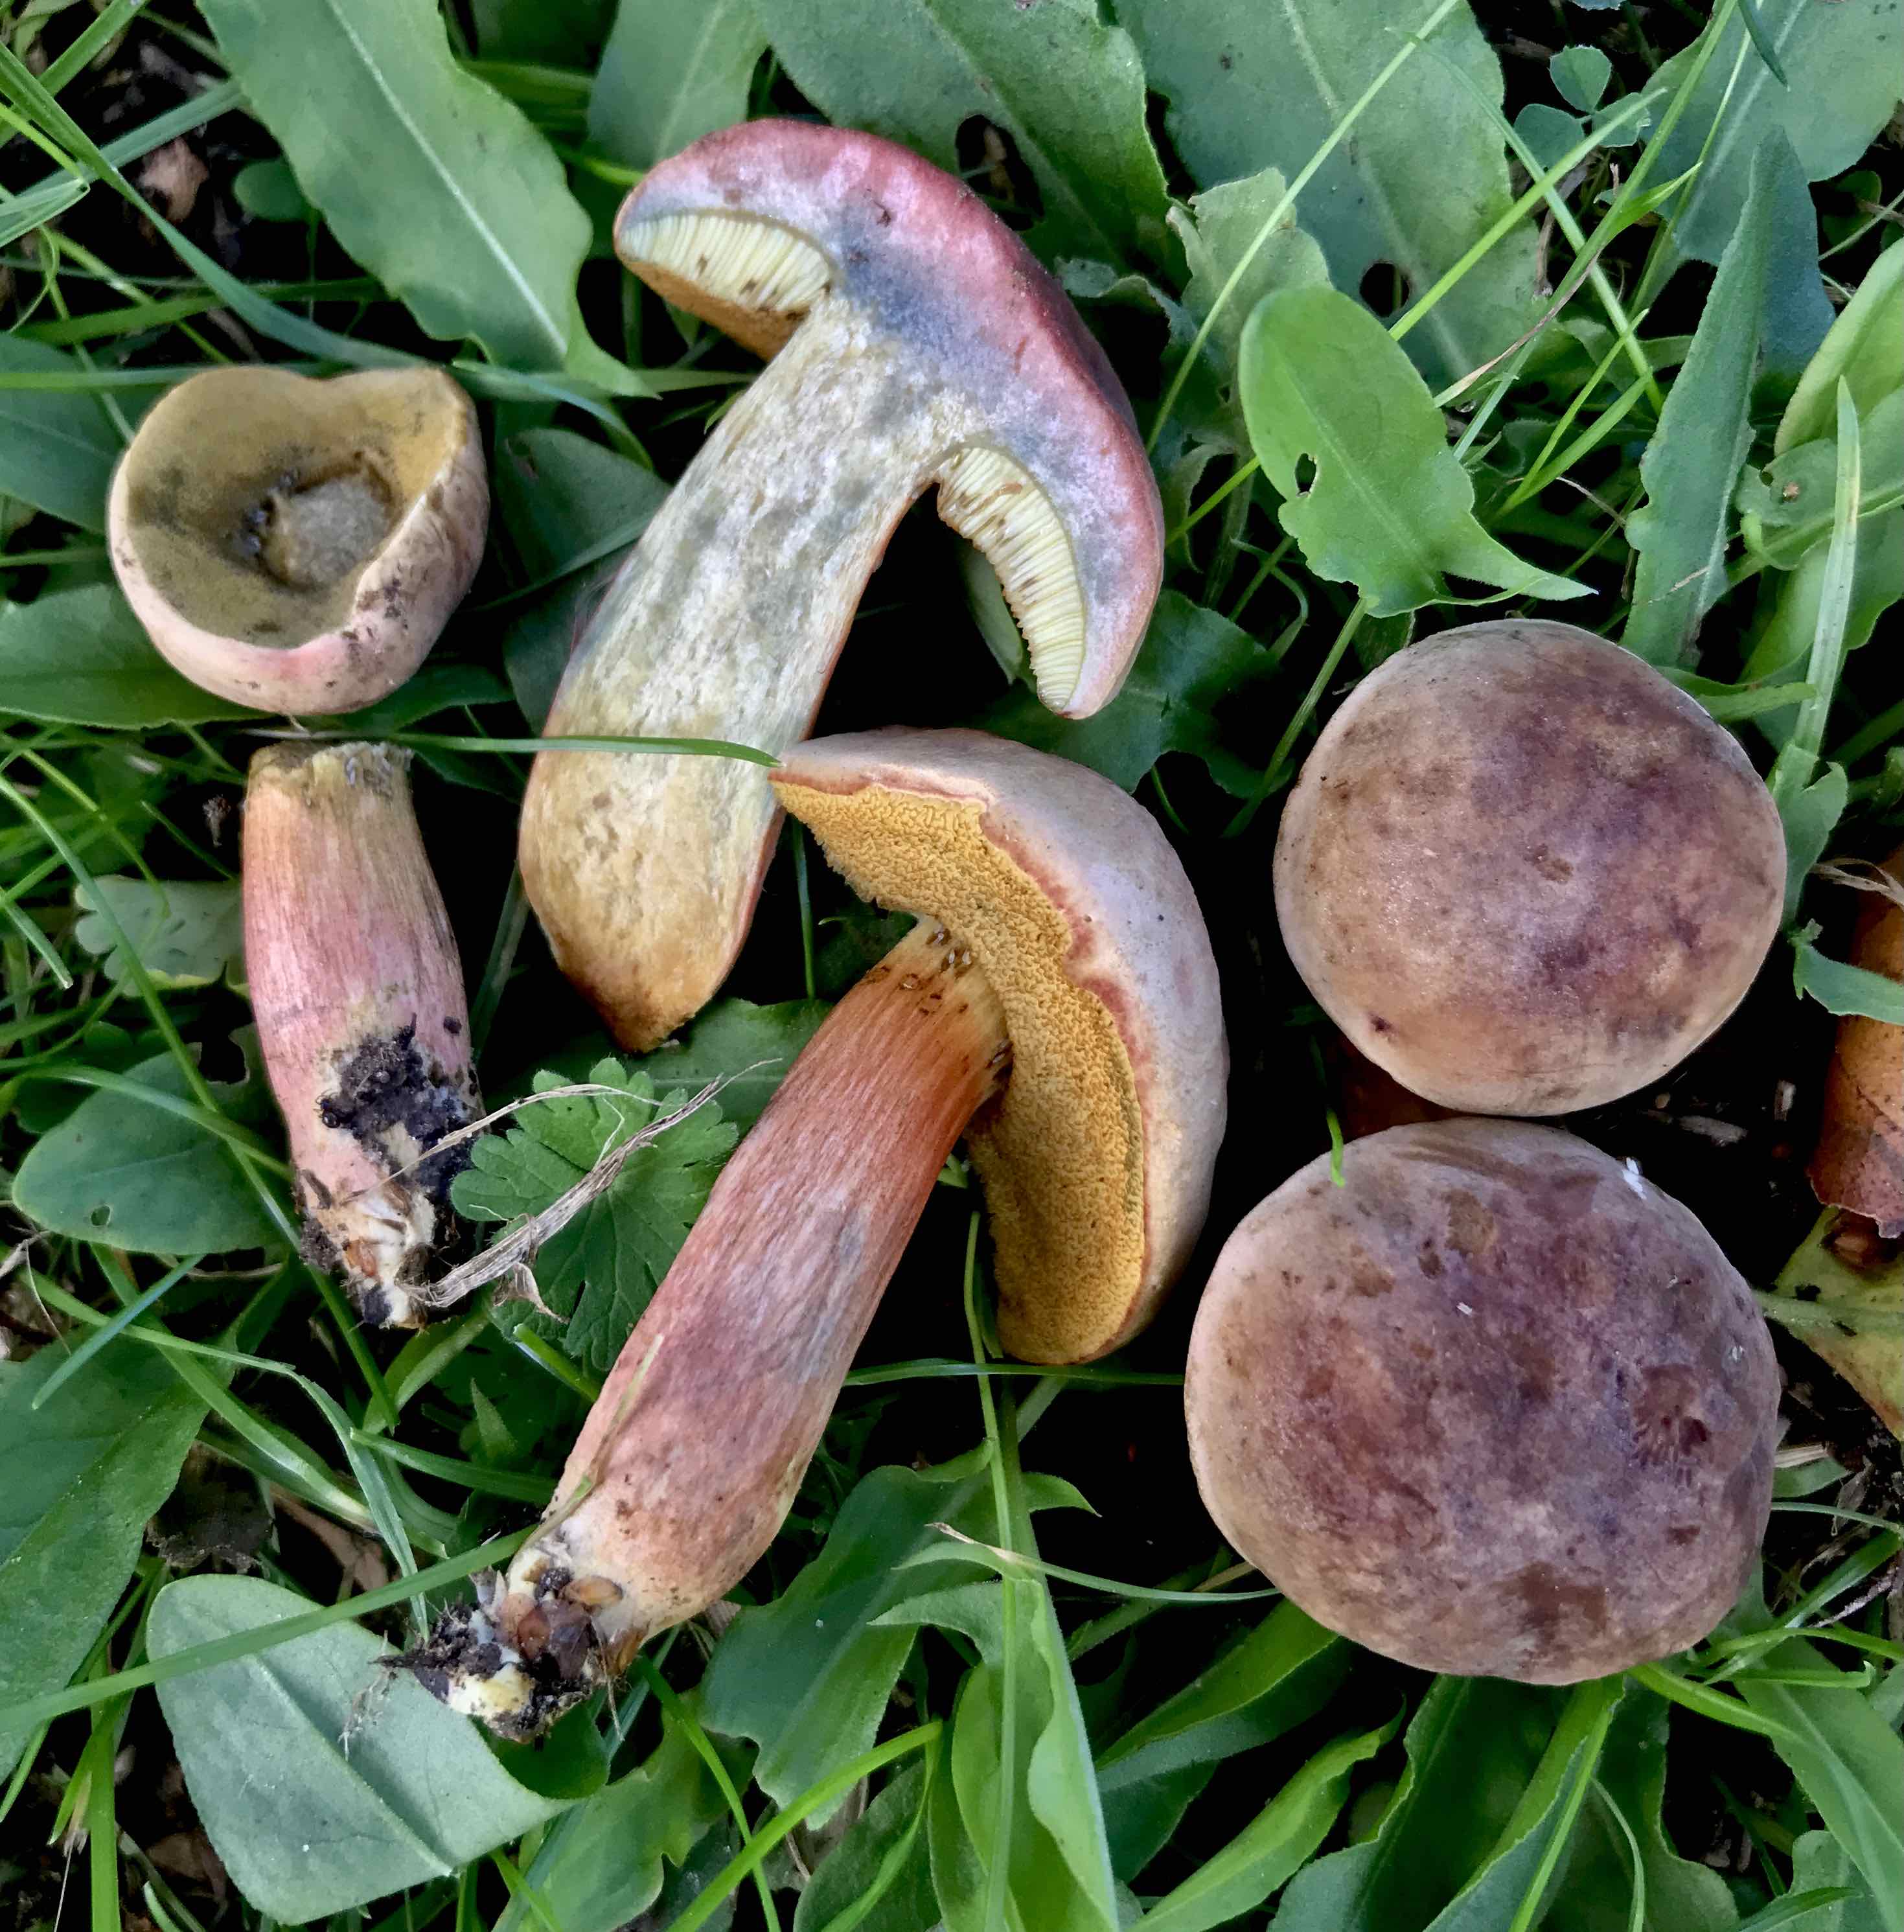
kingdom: Fungi
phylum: Basidiomycota
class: Agaricomycetes
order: Boletales
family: Boletaceae
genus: Hortiboletus
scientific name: Hortiboletus bubalinus
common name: aurora-rørhat
